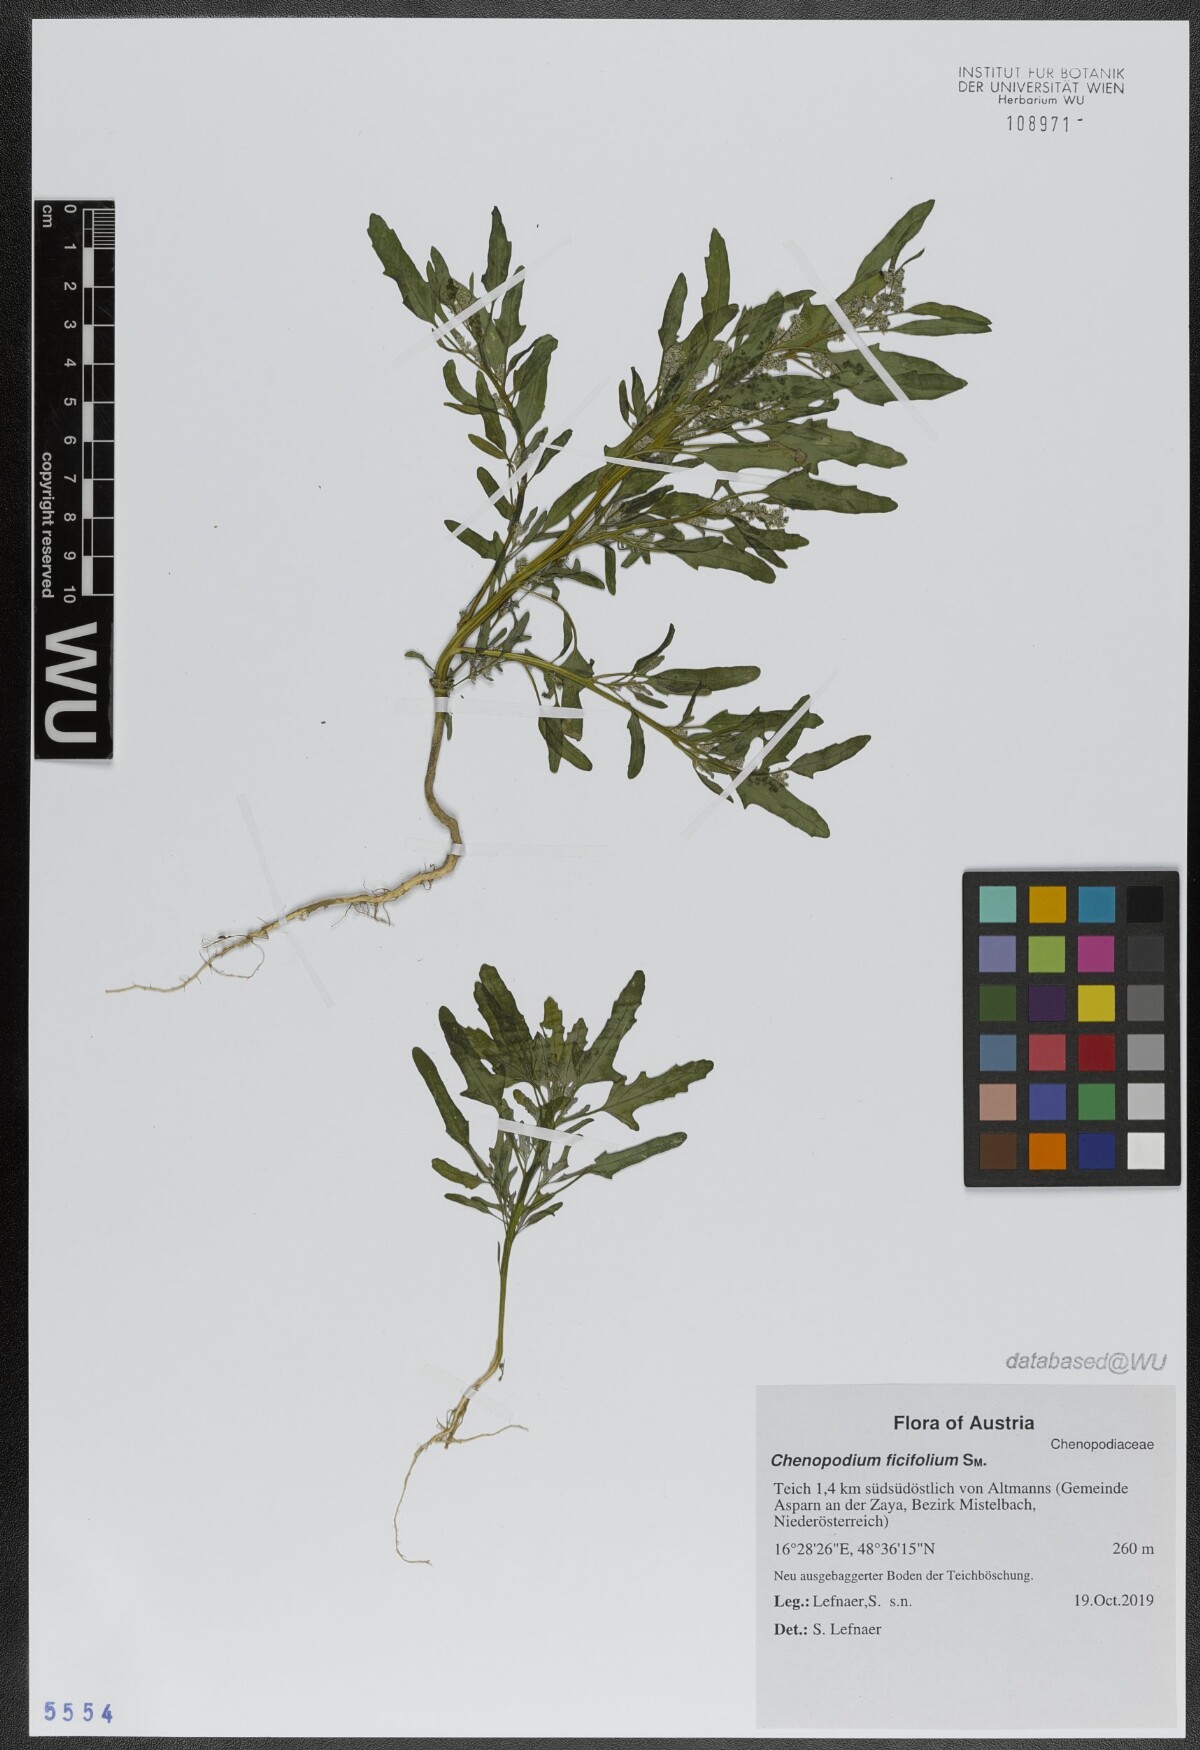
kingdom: Plantae
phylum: Tracheophyta
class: Magnoliopsida
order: Caryophyllales
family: Amaranthaceae
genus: Chenopodium
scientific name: Chenopodium ficifolium
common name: Fig-leaved goosefoot
